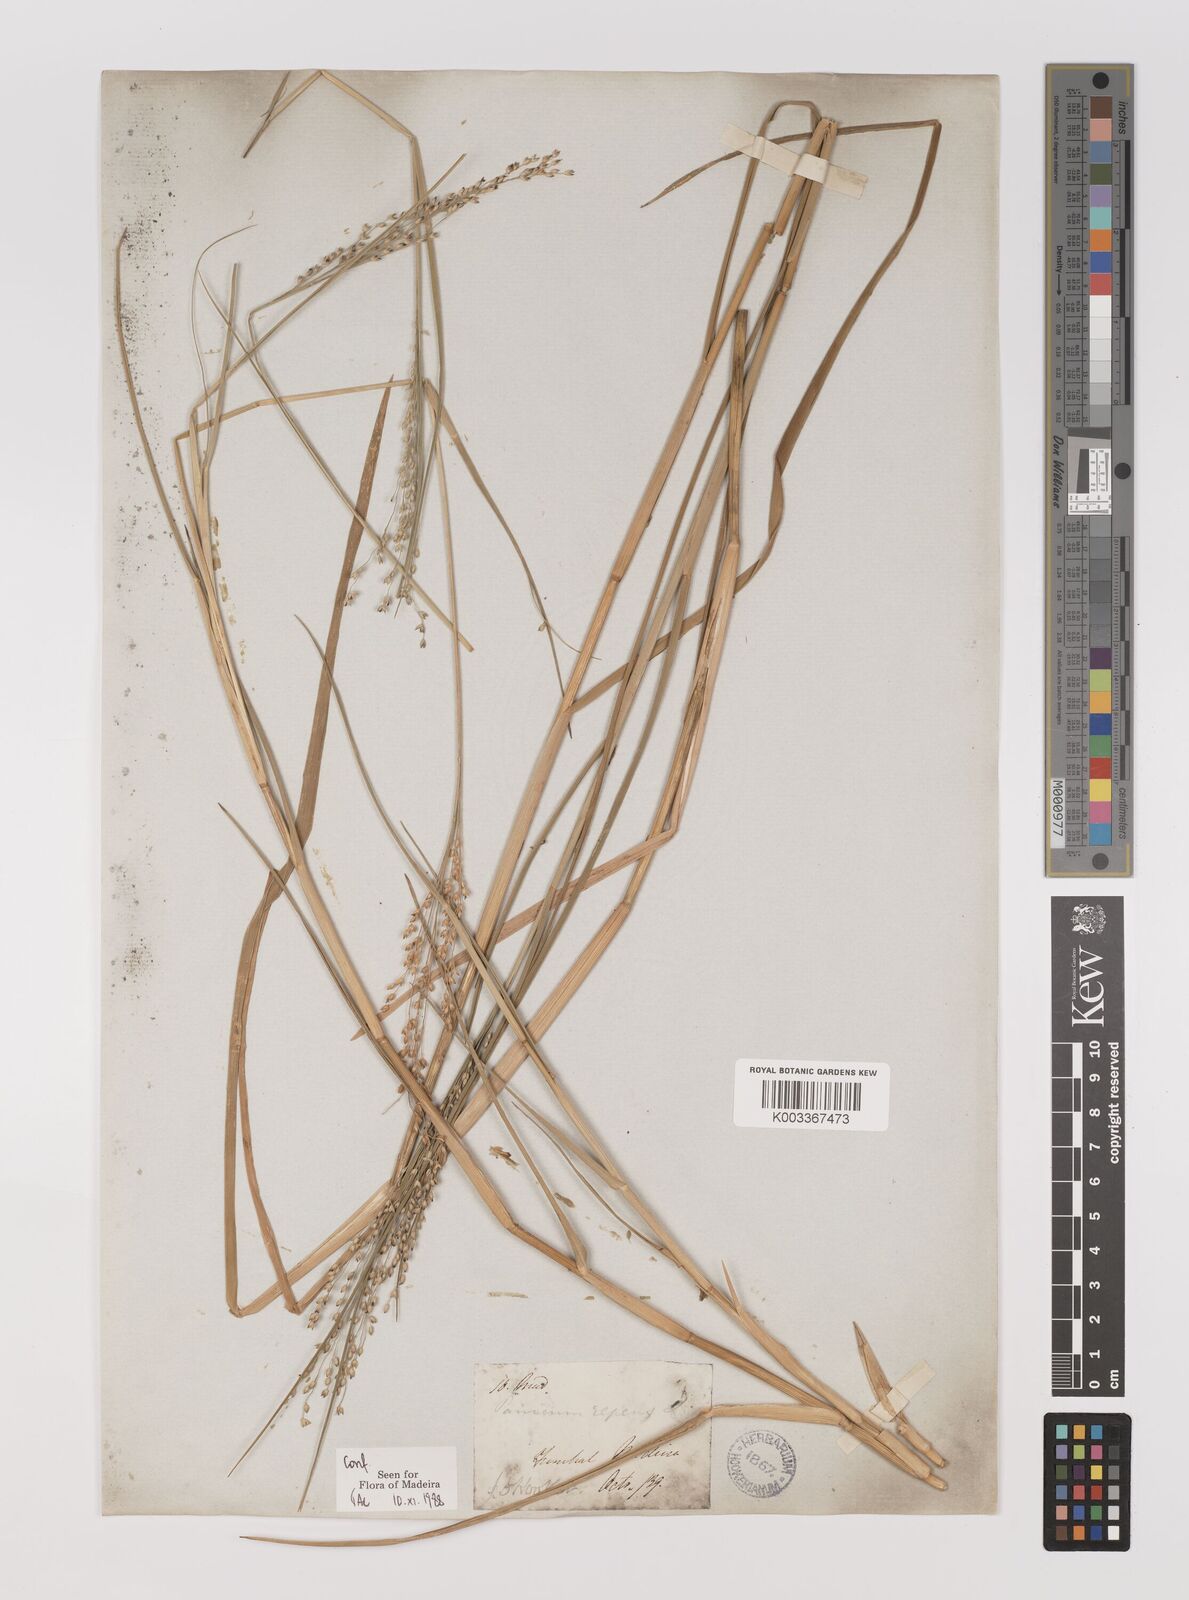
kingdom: Plantae
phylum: Tracheophyta
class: Liliopsida
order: Poales
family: Poaceae
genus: Panicum
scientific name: Panicum repens
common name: Torpedo grass
